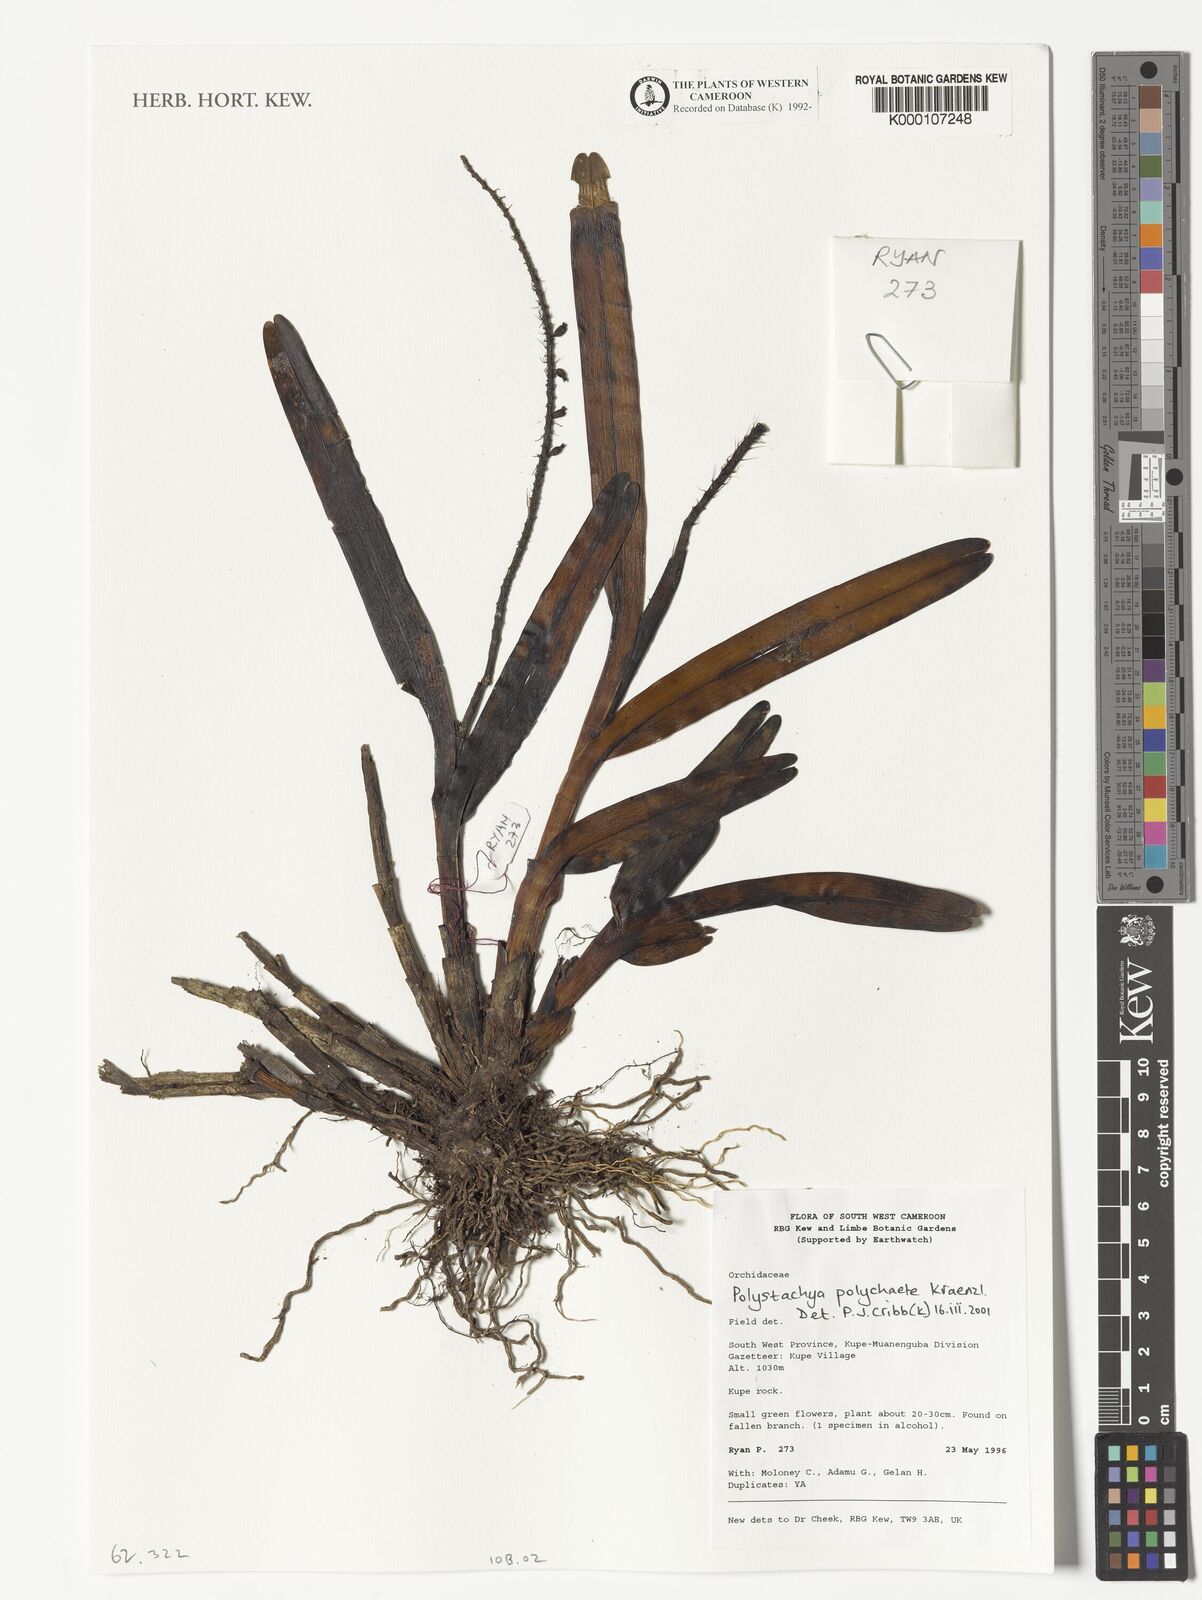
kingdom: Plantae
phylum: Tracheophyta
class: Liliopsida
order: Asparagales
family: Orchidaceae
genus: Polystachya
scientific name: Polystachya polychaete
